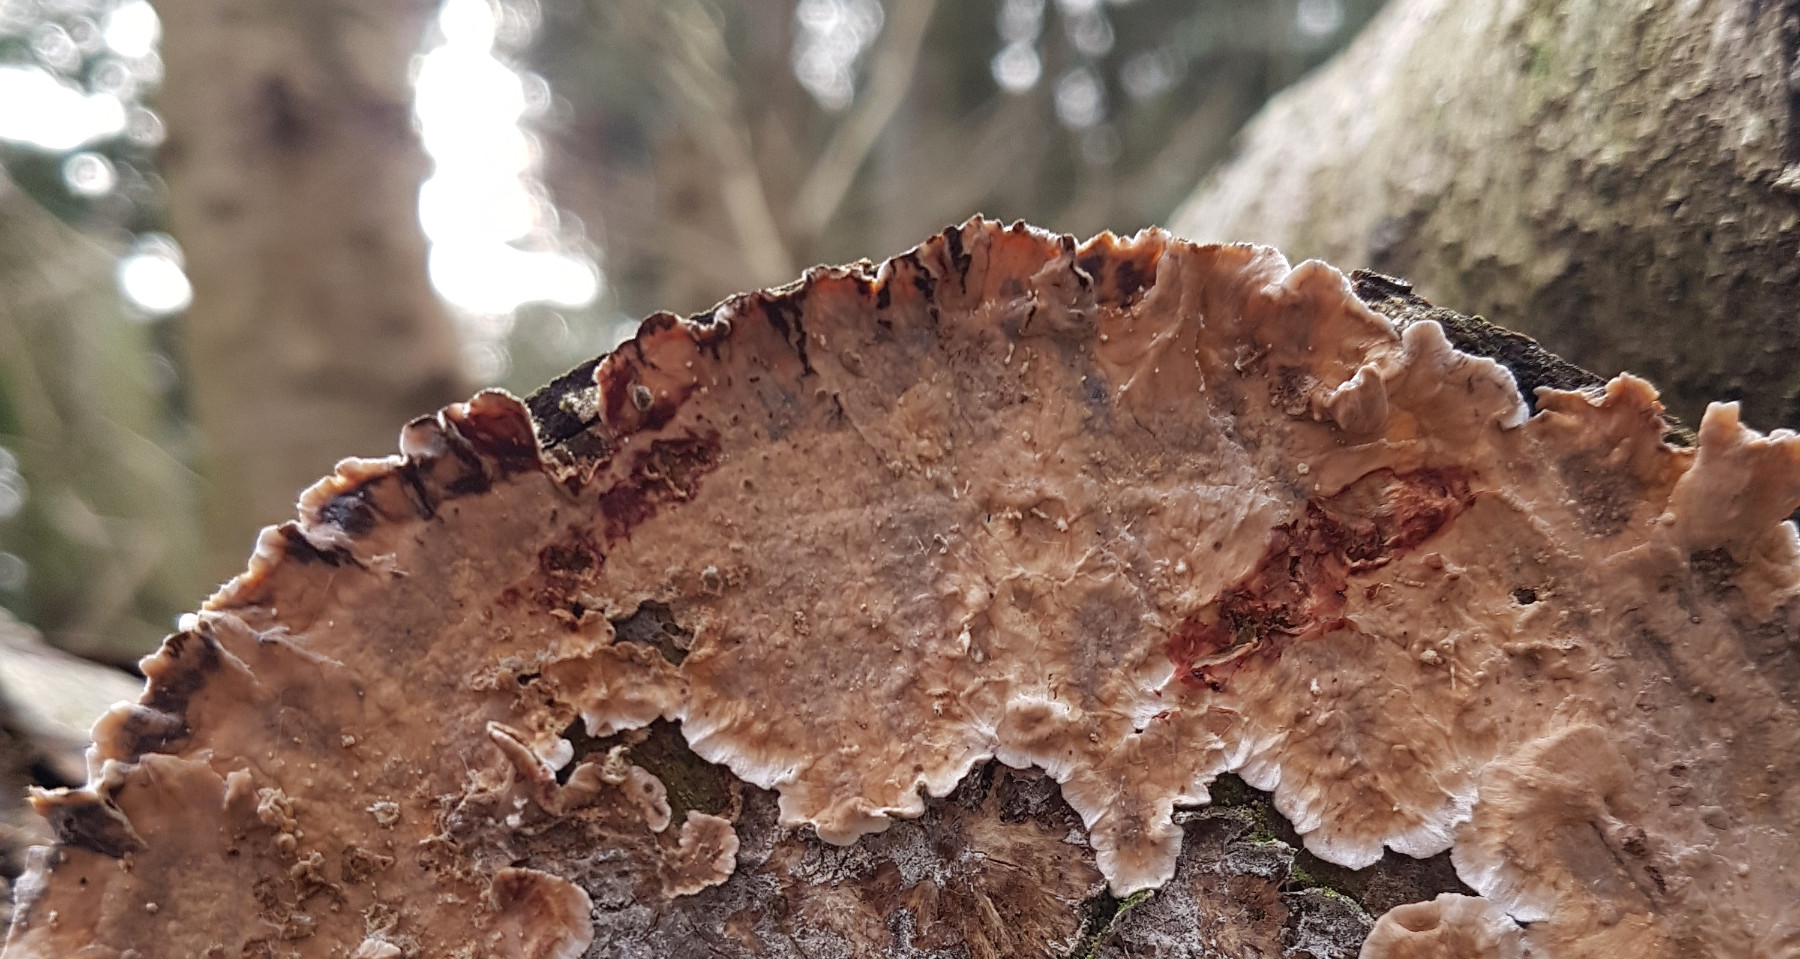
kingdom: Fungi
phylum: Basidiomycota
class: Agaricomycetes
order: Russulales
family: Stereaceae
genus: Stereum
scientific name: Stereum sanguinolentum
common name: blødende lædersvamp
